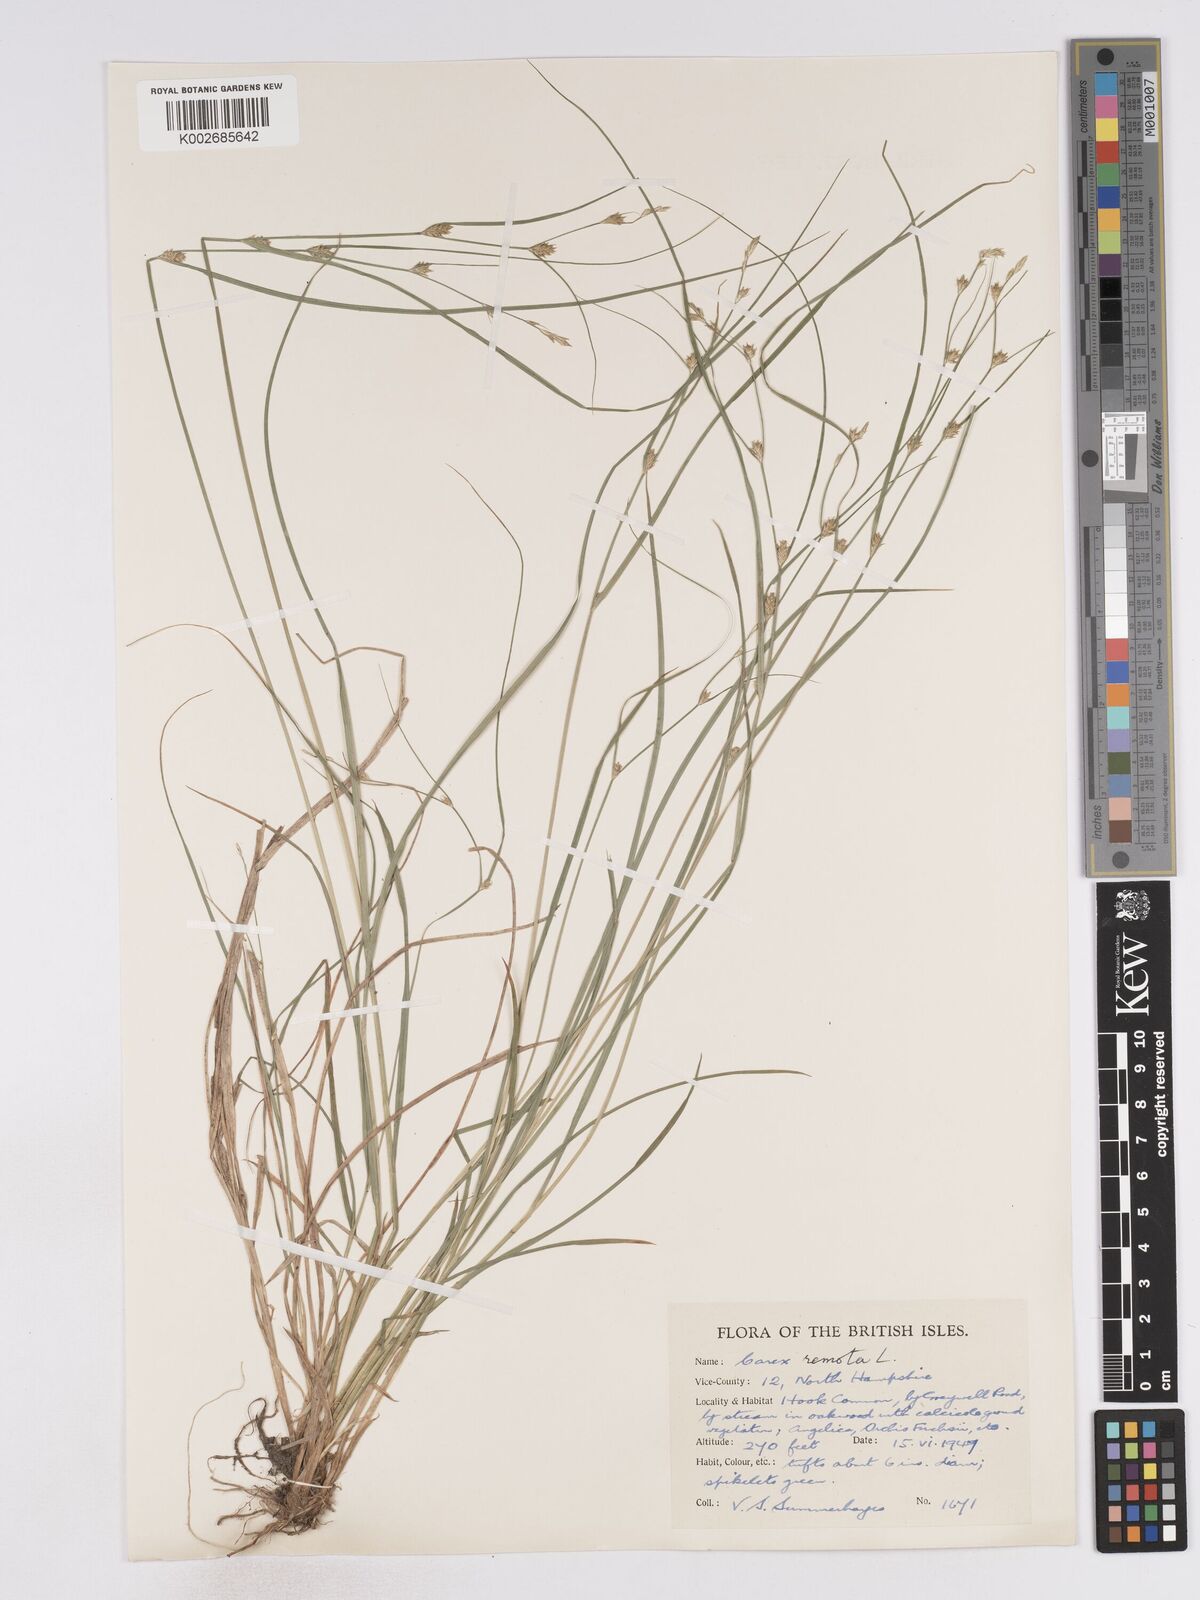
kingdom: Plantae
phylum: Tracheophyta
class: Liliopsida
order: Poales
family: Cyperaceae
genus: Carex
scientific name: Carex remota
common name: Remote sedge
